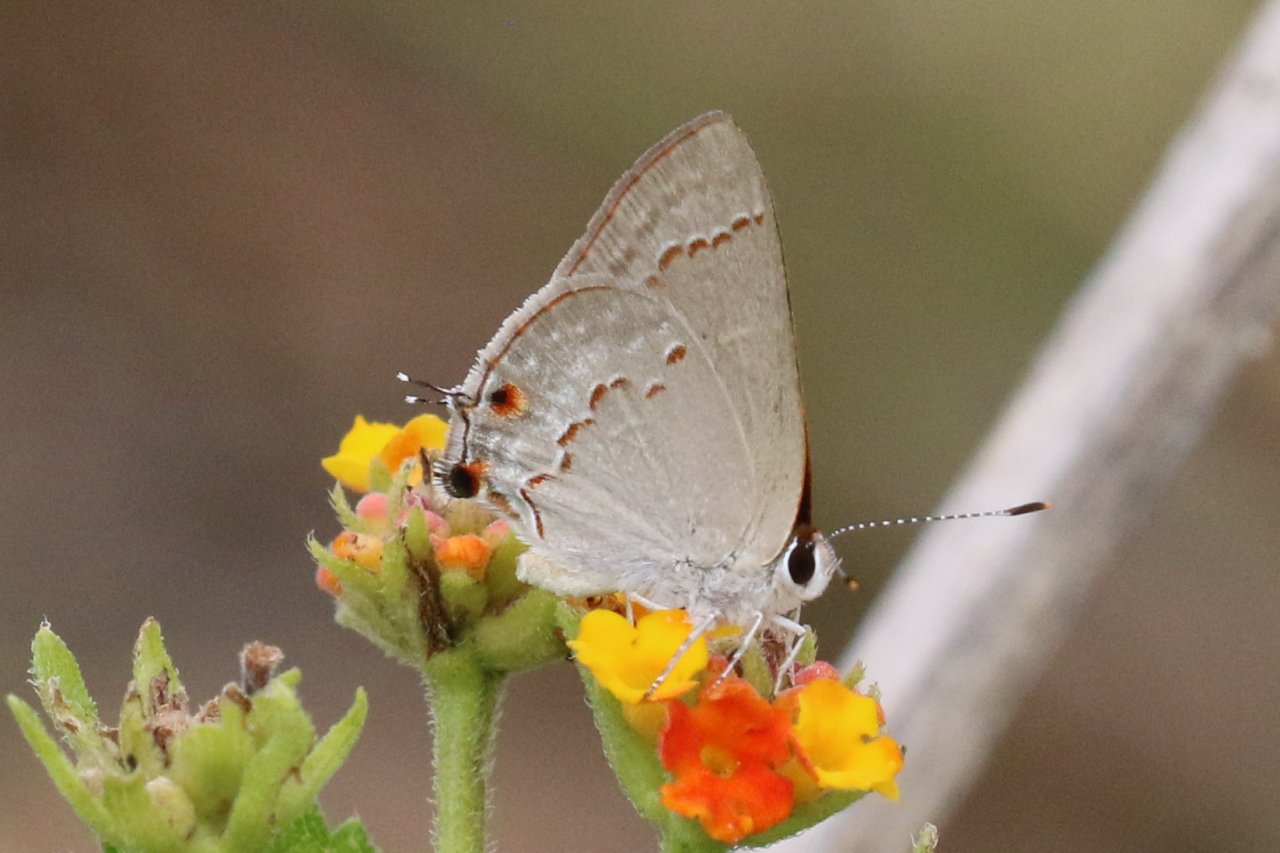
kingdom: Animalia
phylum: Arthropoda
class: Insecta
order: Lepidoptera
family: Lycaenidae
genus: Thecla
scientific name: Thecla rufofusca
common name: Red-crescent Scrub-Hairstreak
